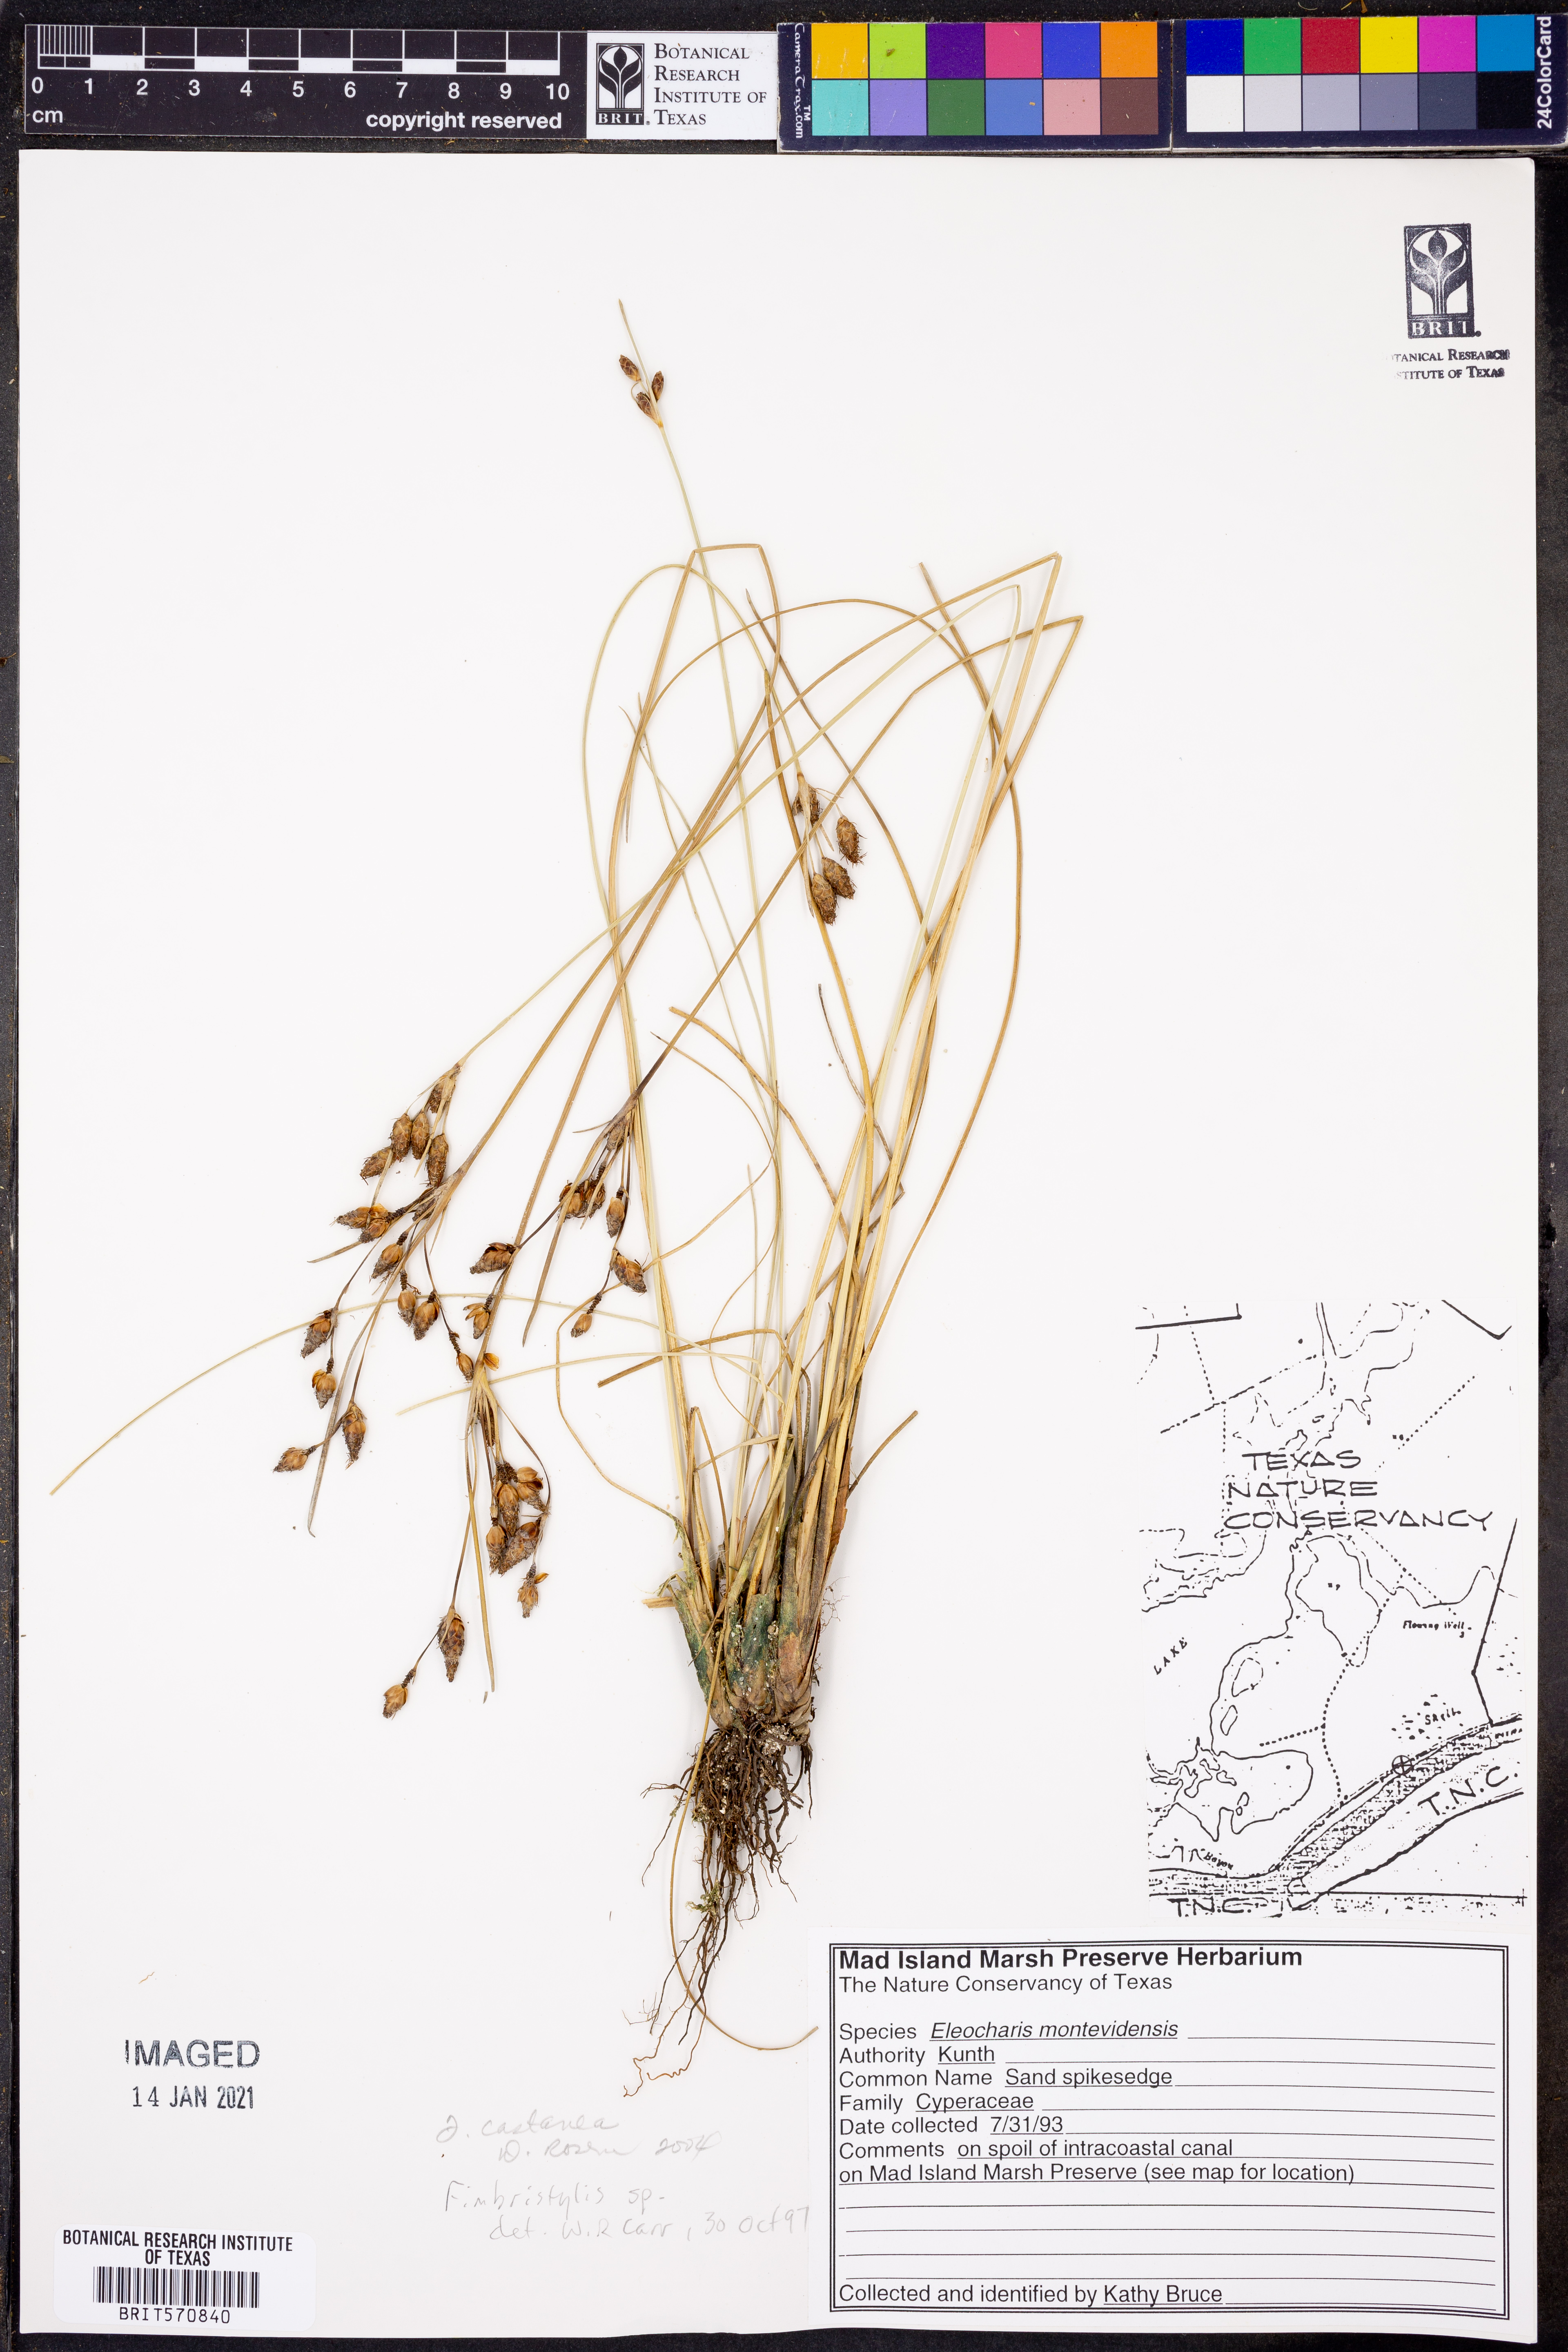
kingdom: Plantae
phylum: Tracheophyta
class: Liliopsida
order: Poales
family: Cyperaceae
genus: Fimbristylis
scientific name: Fimbristylis spadicea
